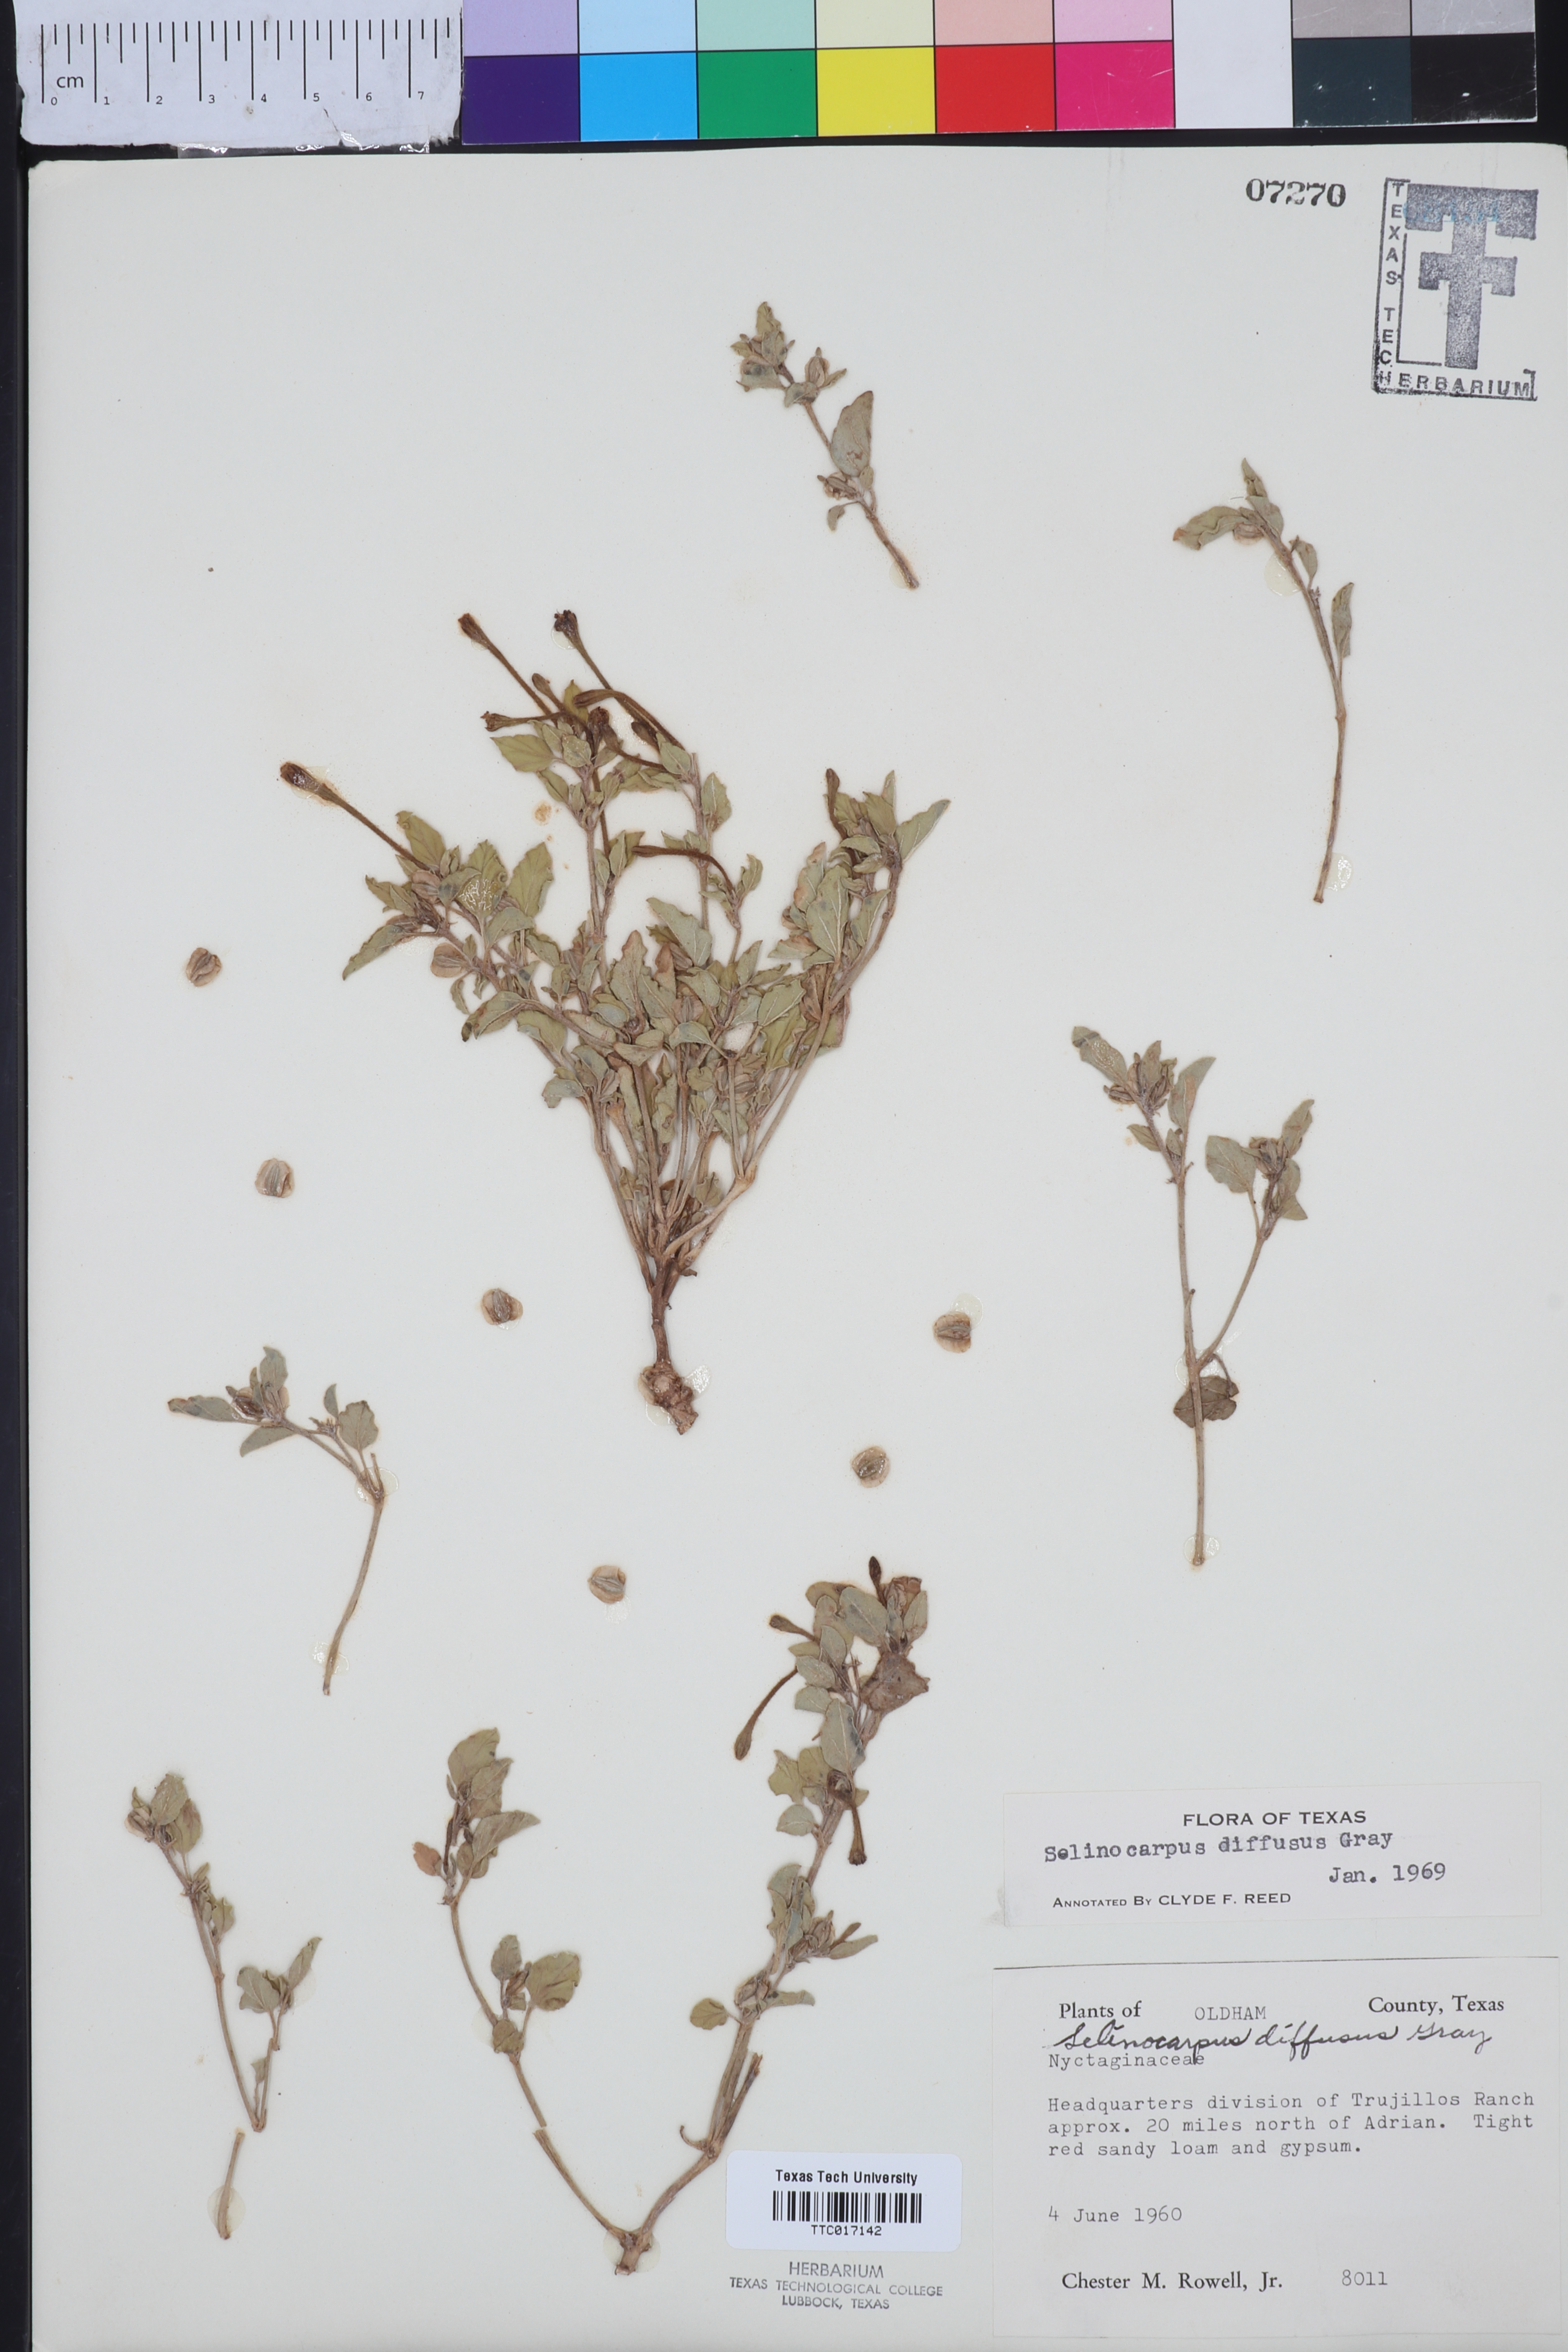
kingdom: Plantae
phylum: Tracheophyta
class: Magnoliopsida
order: Caryophyllales
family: Nyctaginaceae
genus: Acleisanthes
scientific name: Acleisanthes diffusa
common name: Spreading moonpod
